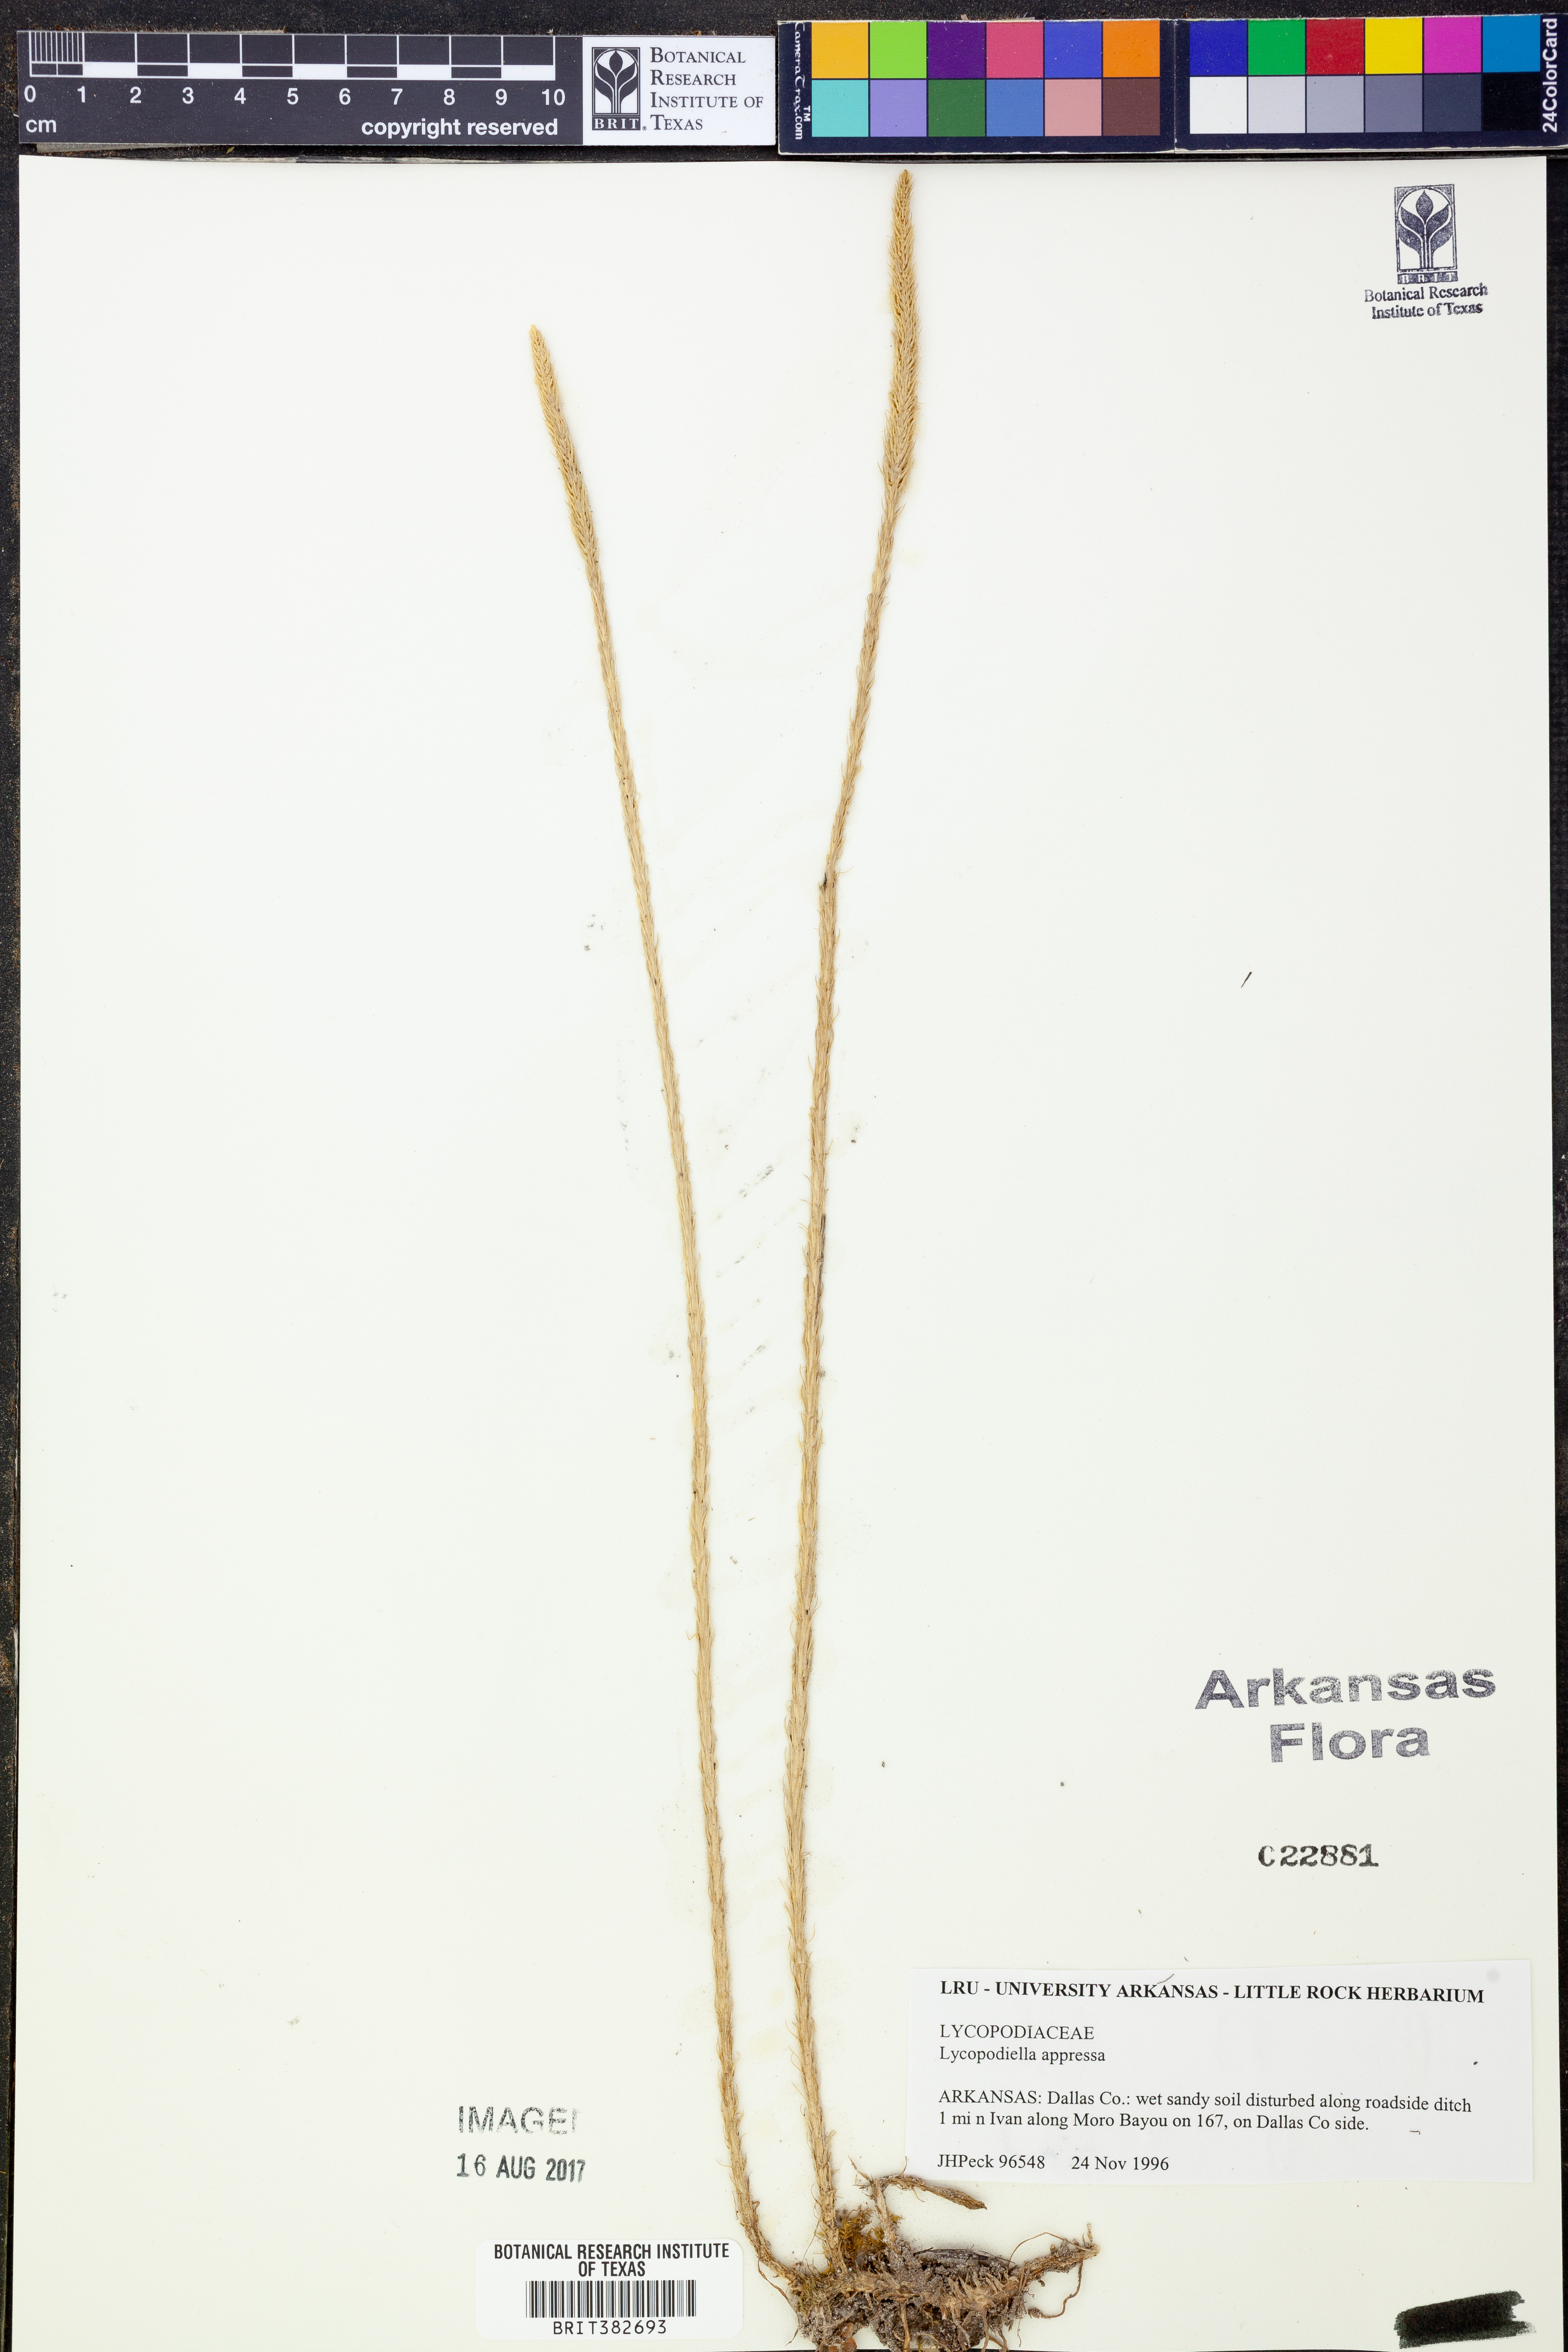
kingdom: Plantae
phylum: Tracheophyta
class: Lycopodiopsida
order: Lycopodiales
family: Lycopodiaceae
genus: Lycopodiella
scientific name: Lycopodiella appressa
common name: Appressed bog clubmoss
